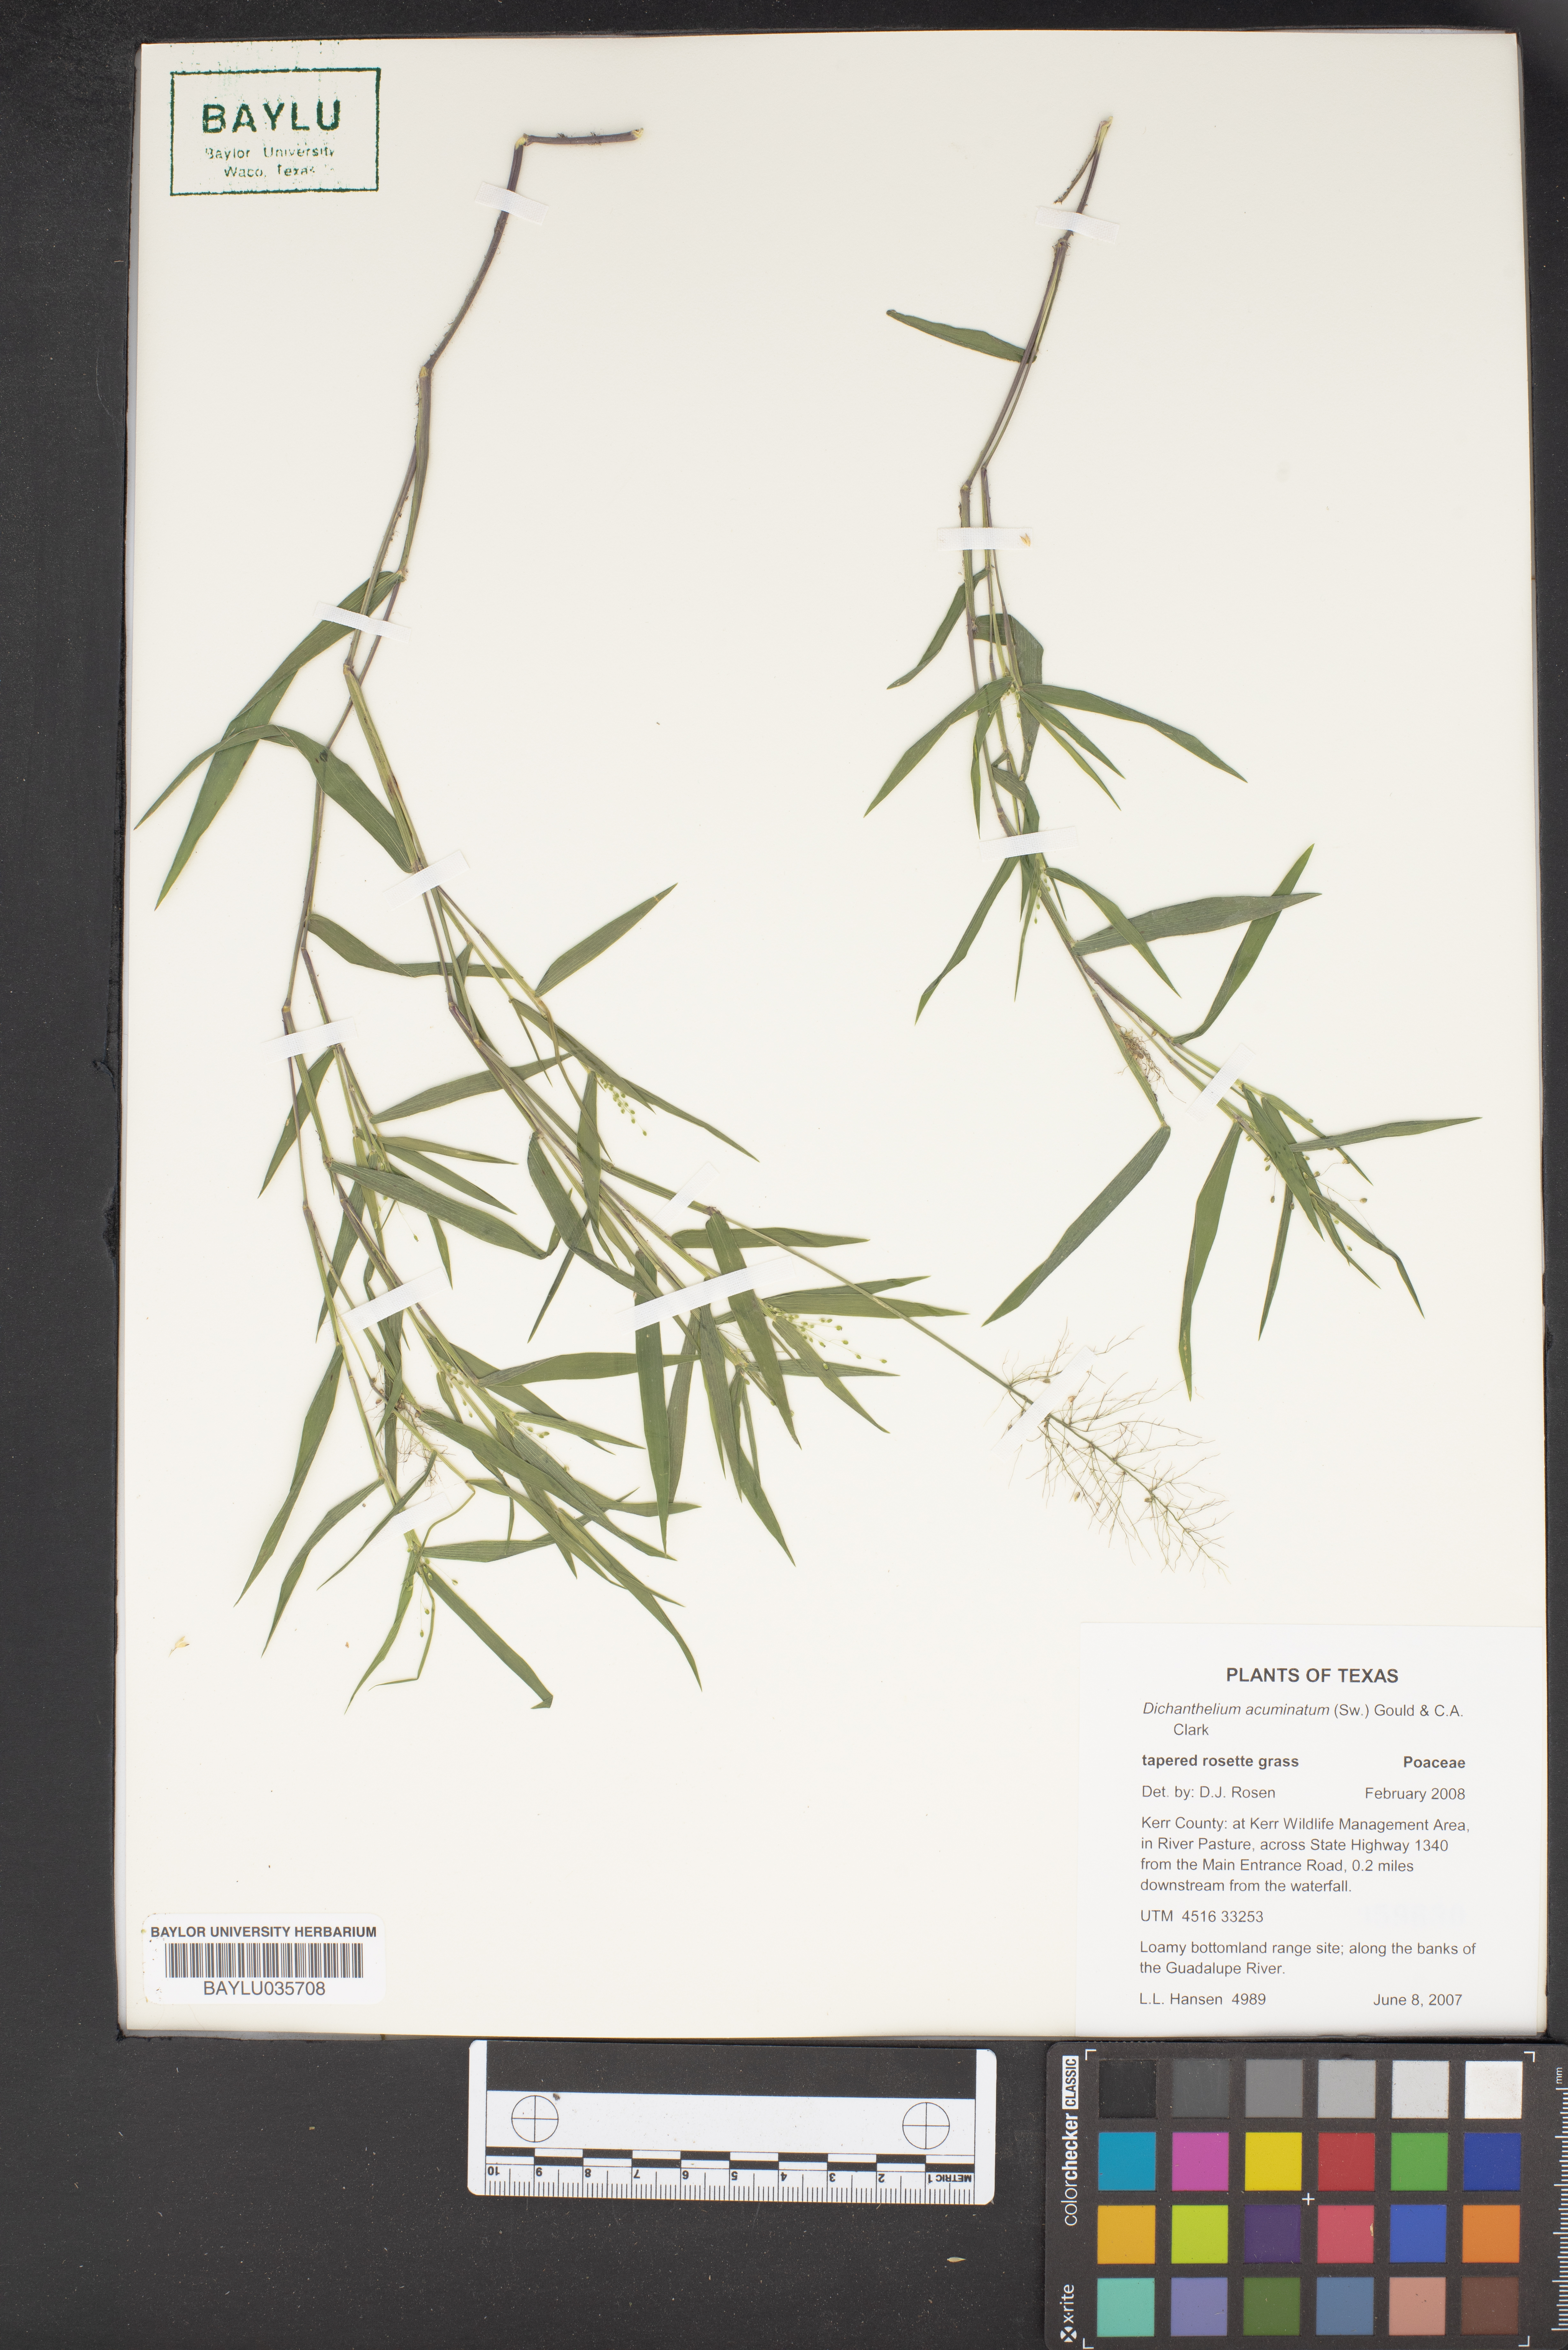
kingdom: Plantae
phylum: Tracheophyta
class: Liliopsida
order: Poales
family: Poaceae
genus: Dichanthelium
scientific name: Dichanthelium acuminatum
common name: Hairy panic grass
